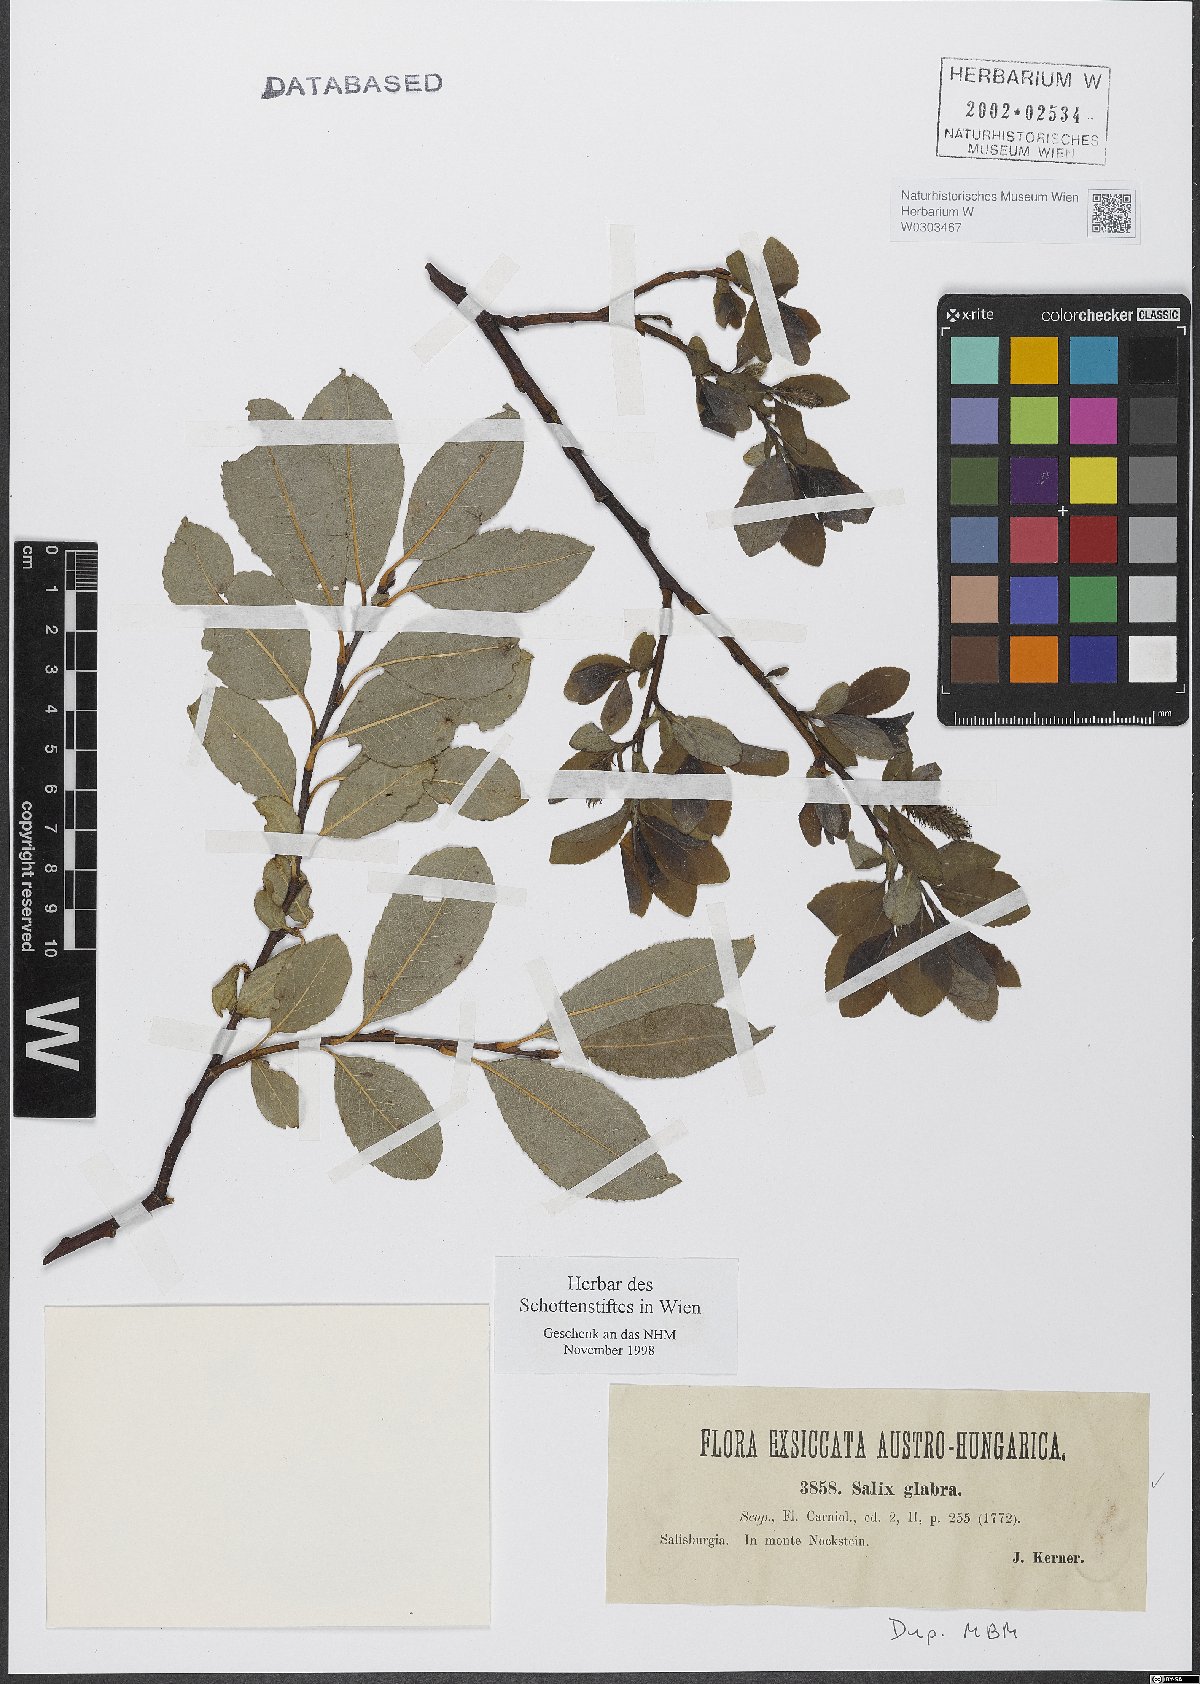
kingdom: Plantae
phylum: Tracheophyta
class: Magnoliopsida
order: Malpighiales
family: Salicaceae
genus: Salix
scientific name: Salix glabra
